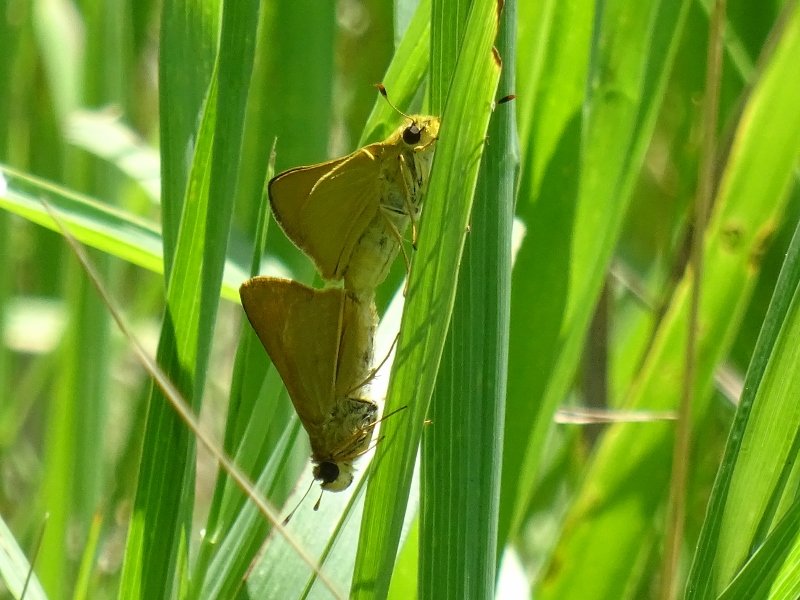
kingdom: Animalia
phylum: Arthropoda
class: Insecta
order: Lepidoptera
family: Hesperiidae
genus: Atrytone
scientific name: Atrytone delaware
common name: Delaware Skipper
